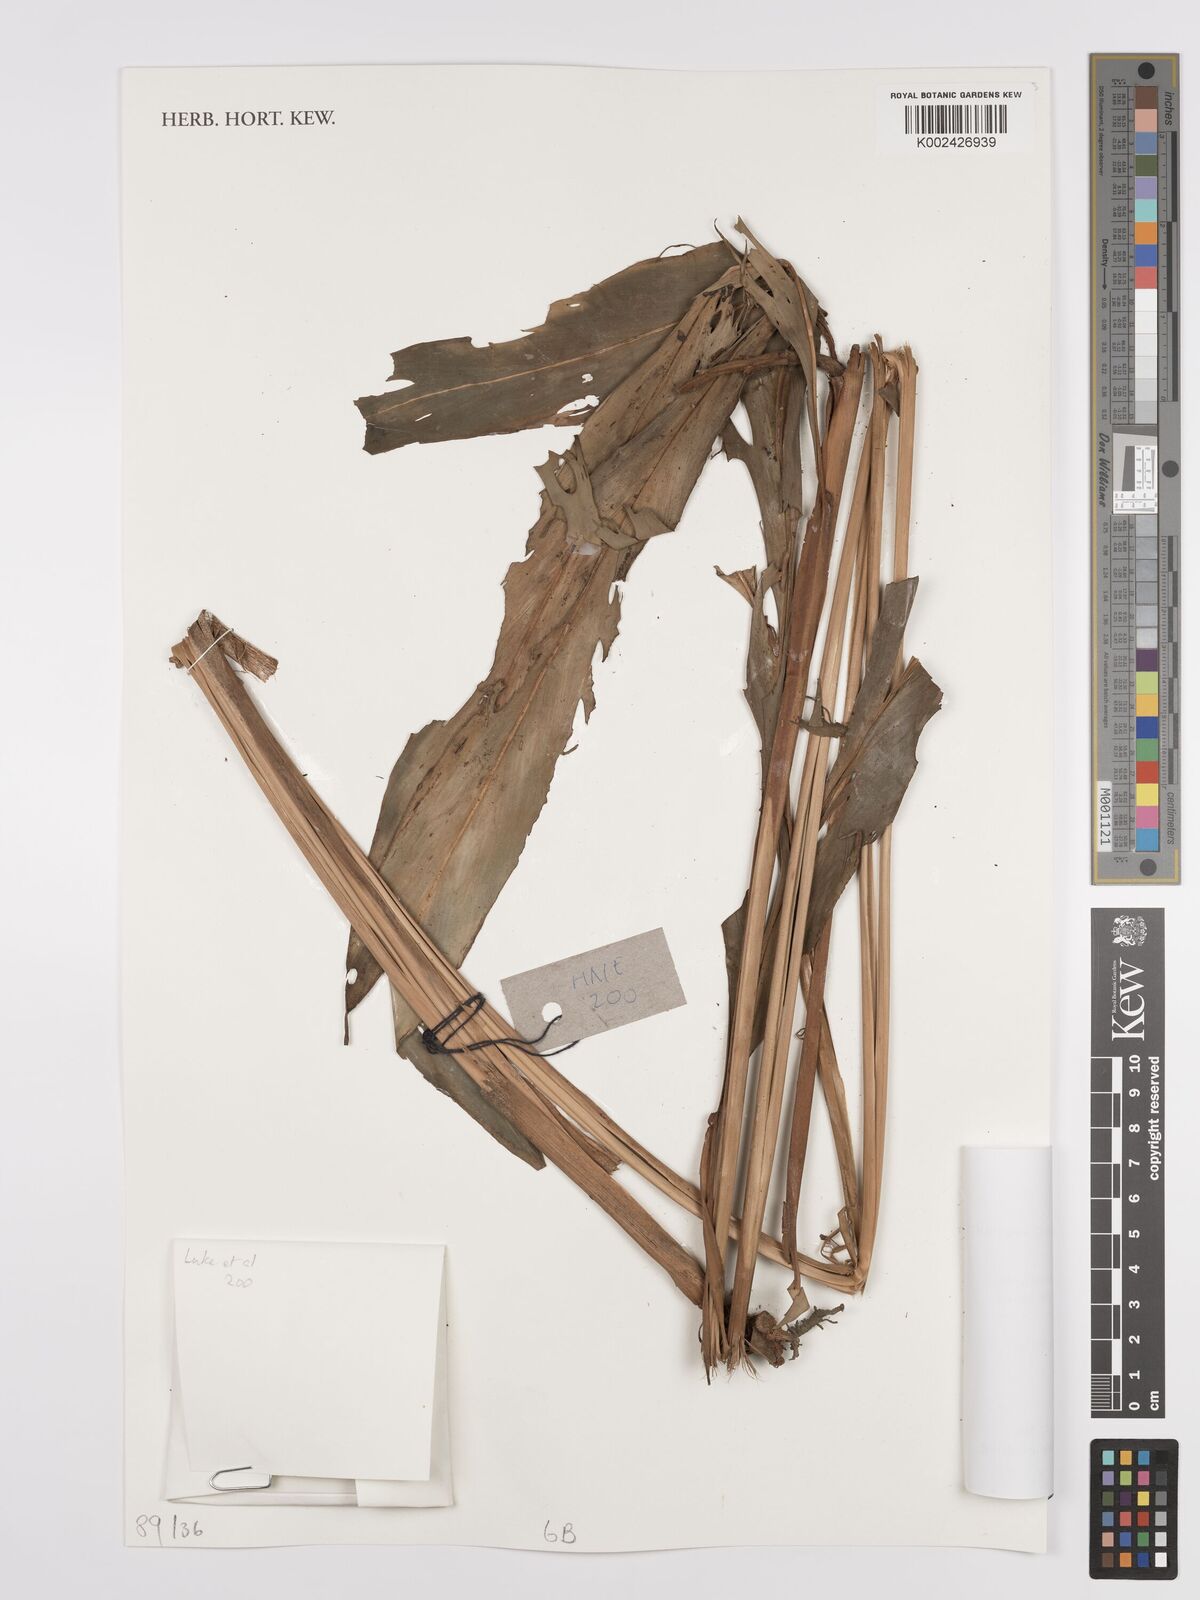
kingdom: Plantae
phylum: Tracheophyta
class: Liliopsida
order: Zingiberales
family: Zingiberaceae
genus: Hedychium
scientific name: Hedychium
